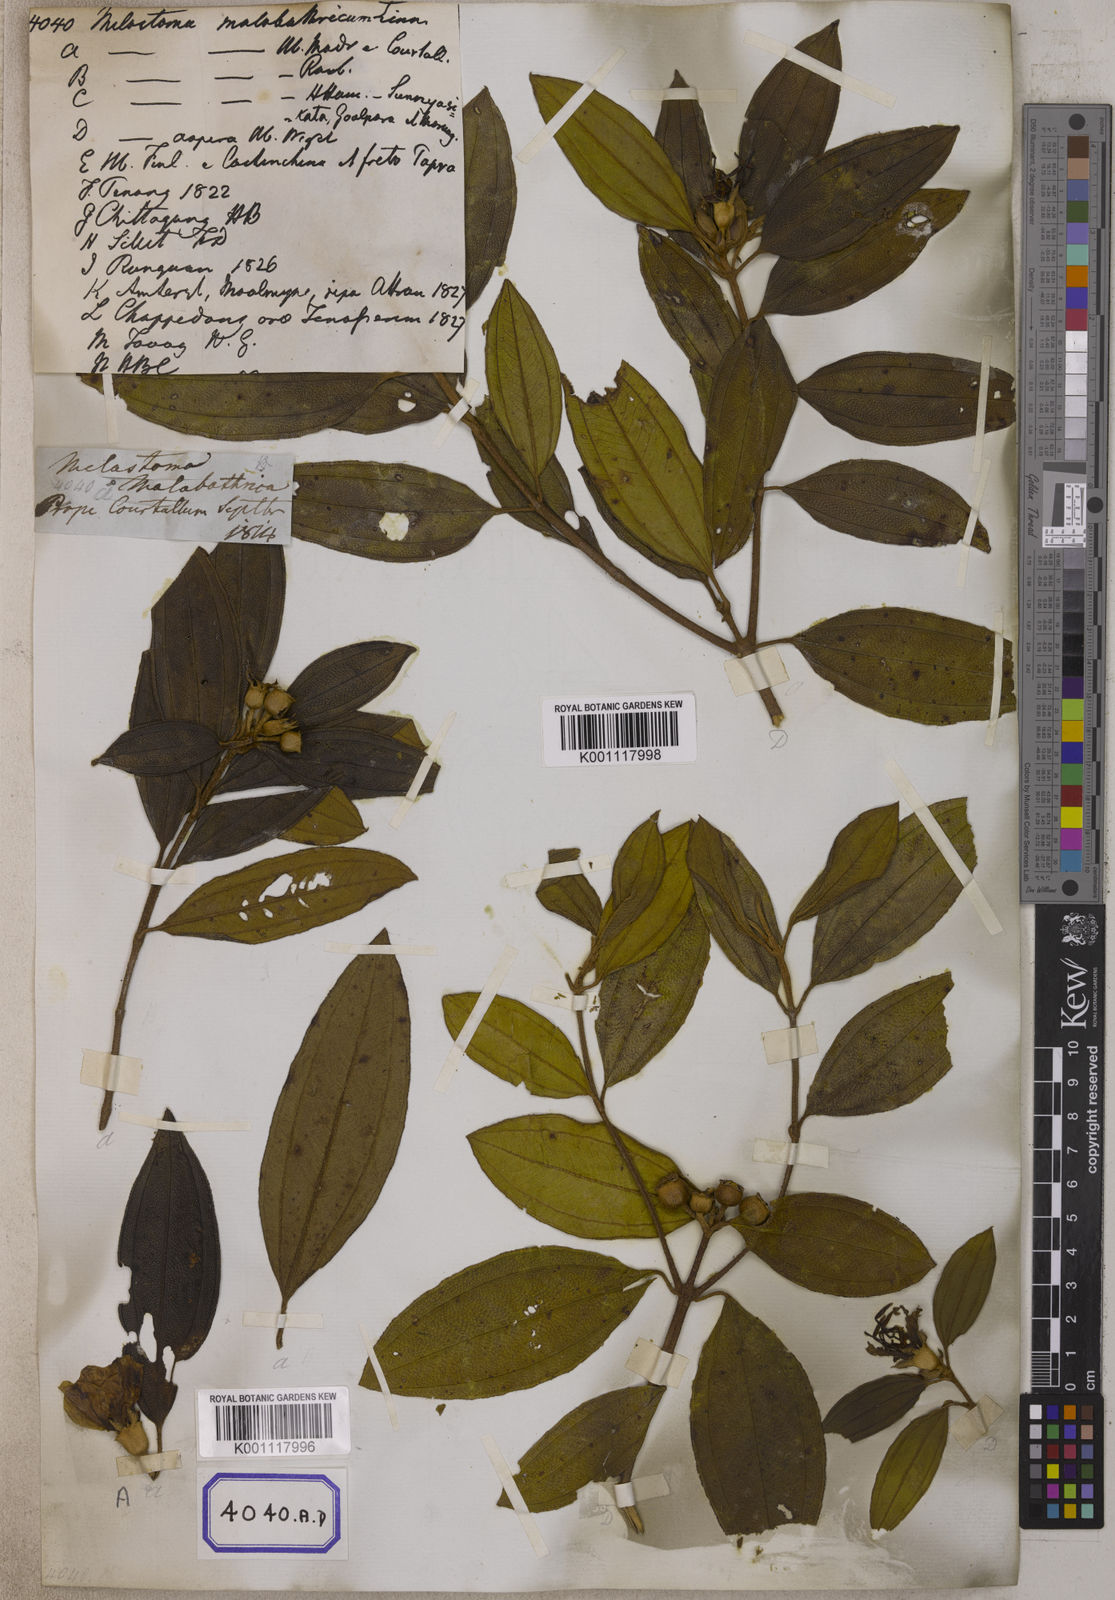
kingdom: Plantae
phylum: Tracheophyta
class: Magnoliopsida
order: Myrtales
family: Melastomataceae
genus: Melastoma
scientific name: Melastoma malabathricum
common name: Indian-rhododendron
